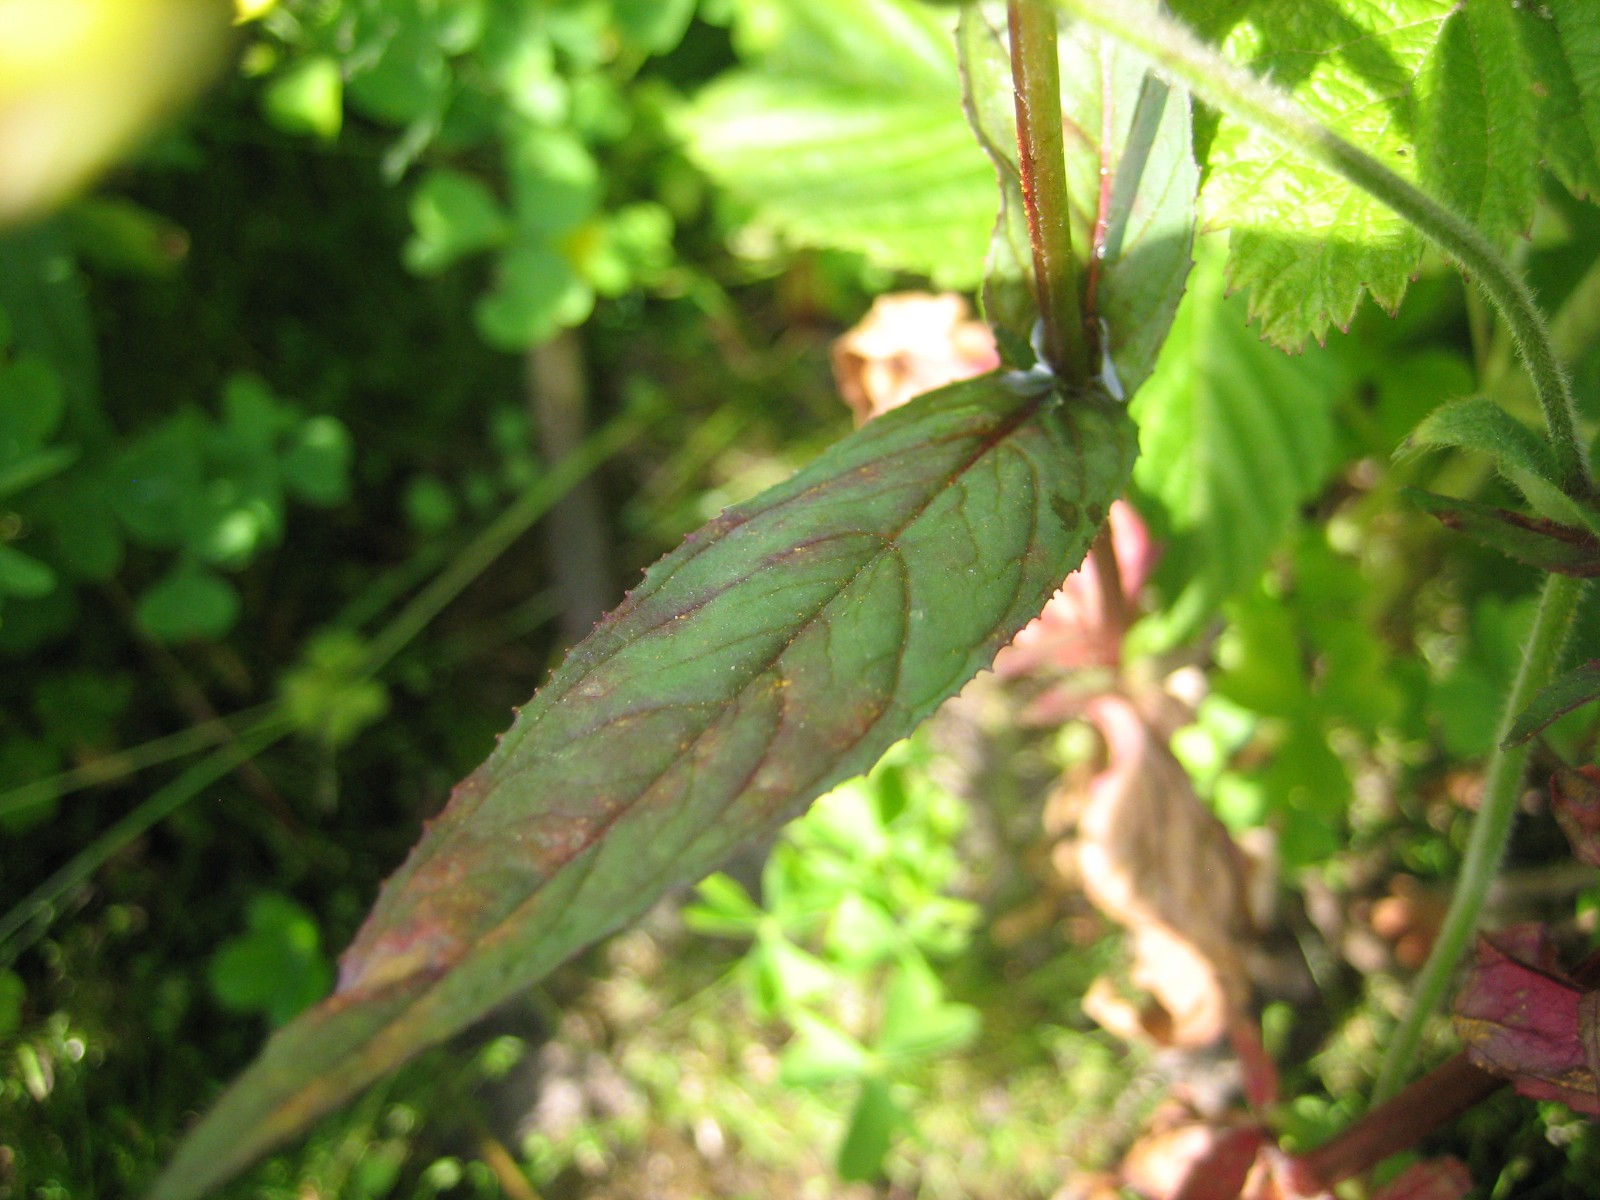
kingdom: Fungi
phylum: Basidiomycota
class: Pucciniomycetes
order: Pucciniales
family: Pucciniastraceae
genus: Pucciniastrum
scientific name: Pucciniastrum epilobii
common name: dueurt-nålerust
